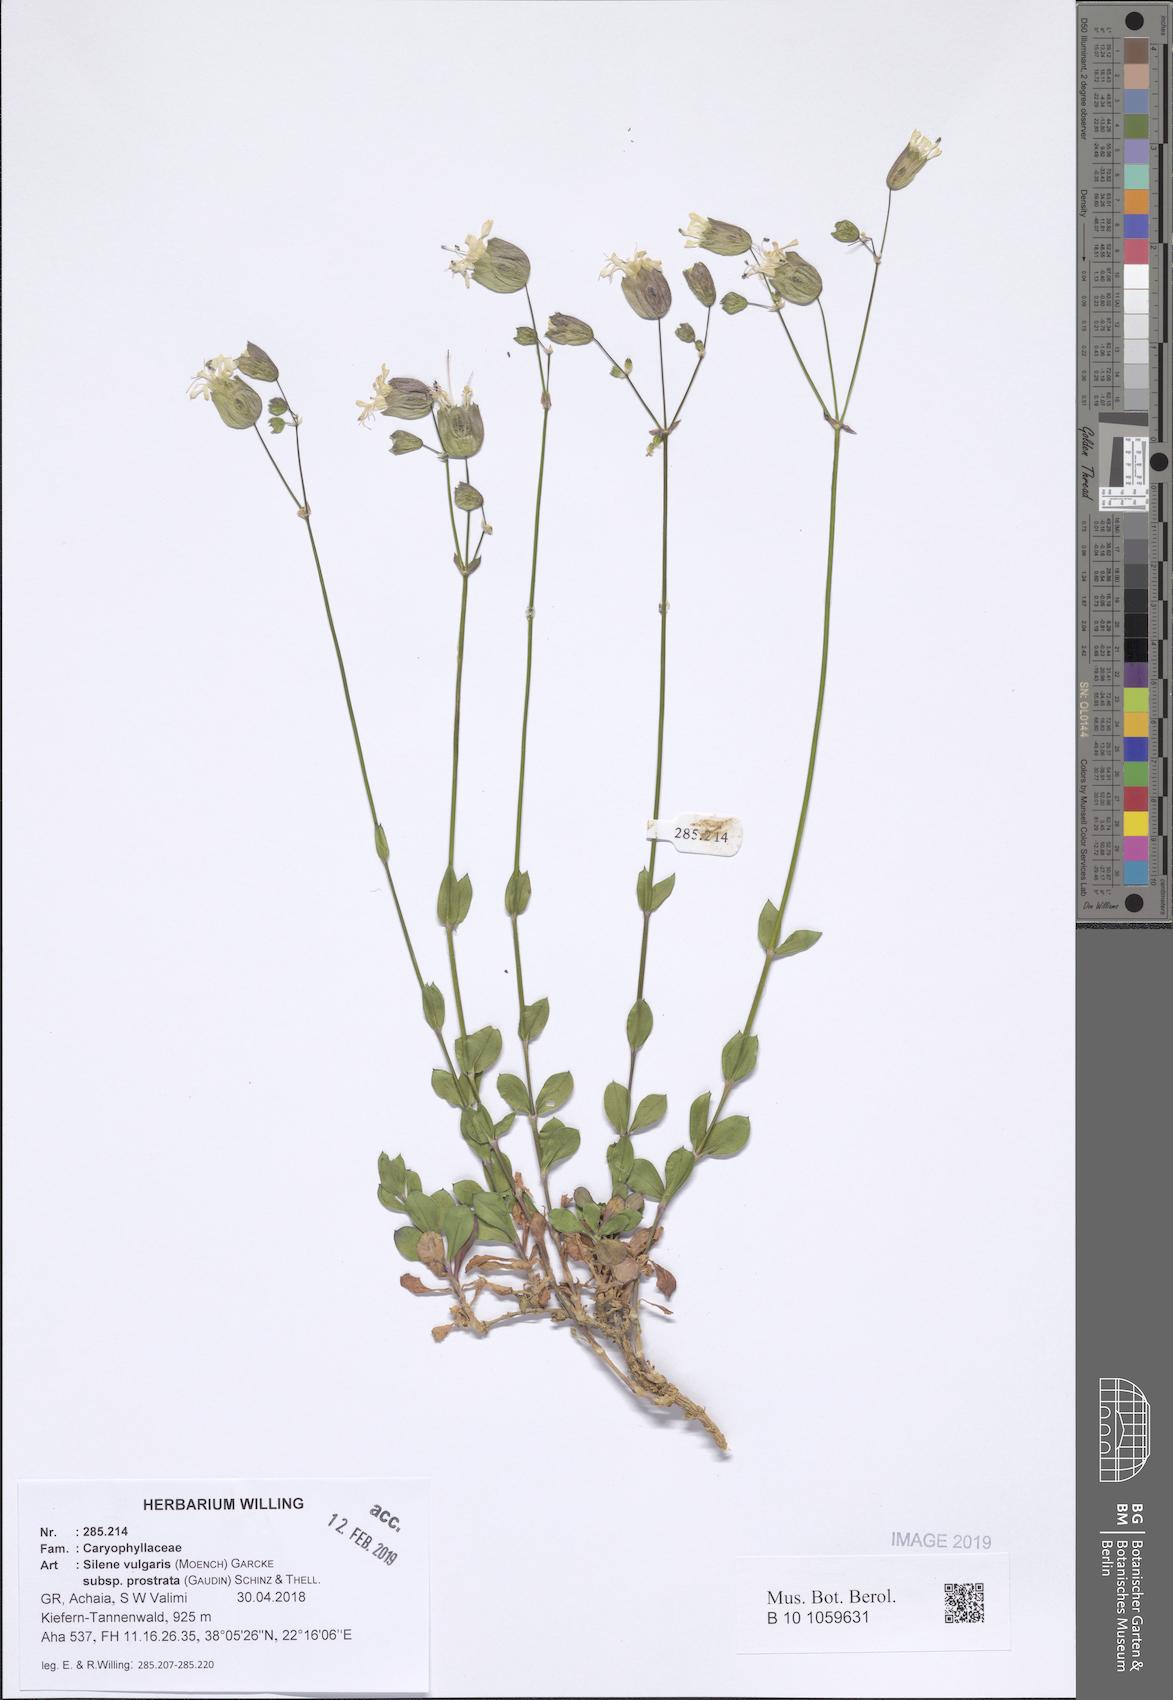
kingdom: Plantae
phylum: Tracheophyta
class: Magnoliopsida
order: Caryophyllales
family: Caryophyllaceae
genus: Silene
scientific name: Silene glareosa
